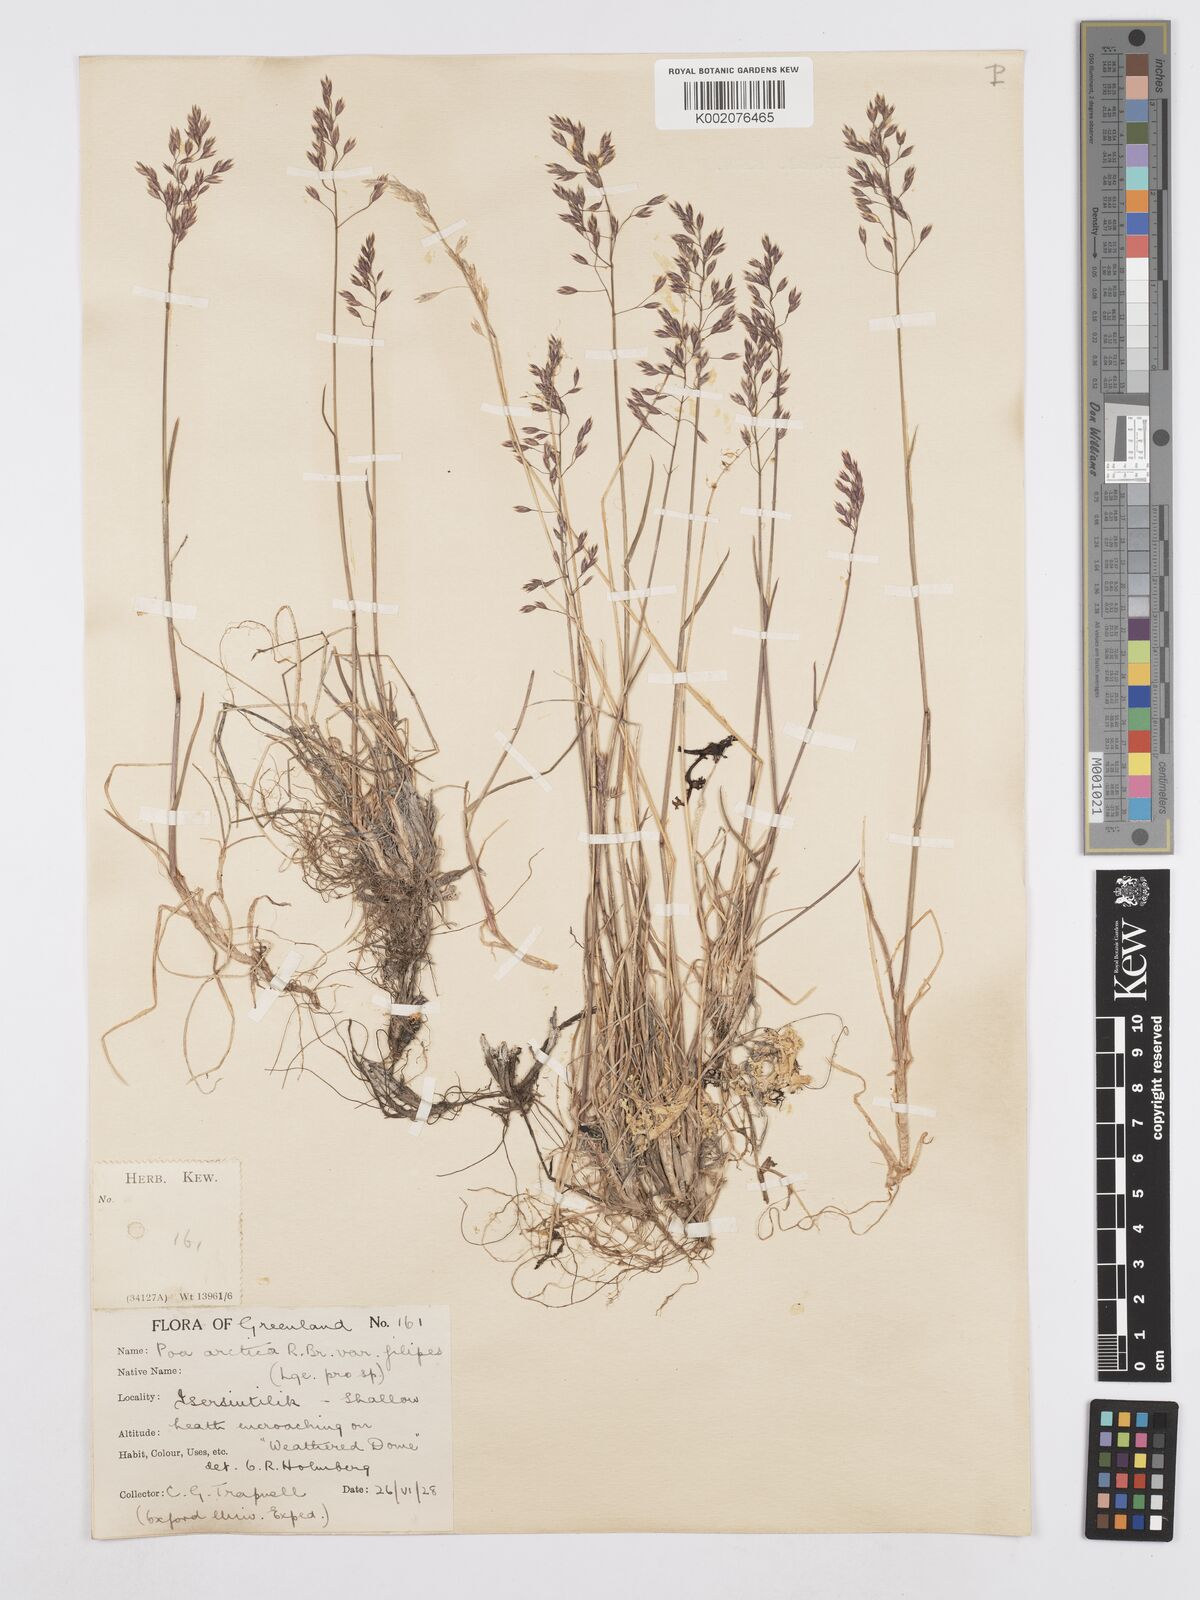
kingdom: Plantae
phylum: Tracheophyta
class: Liliopsida
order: Poales
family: Poaceae
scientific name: Poaceae
